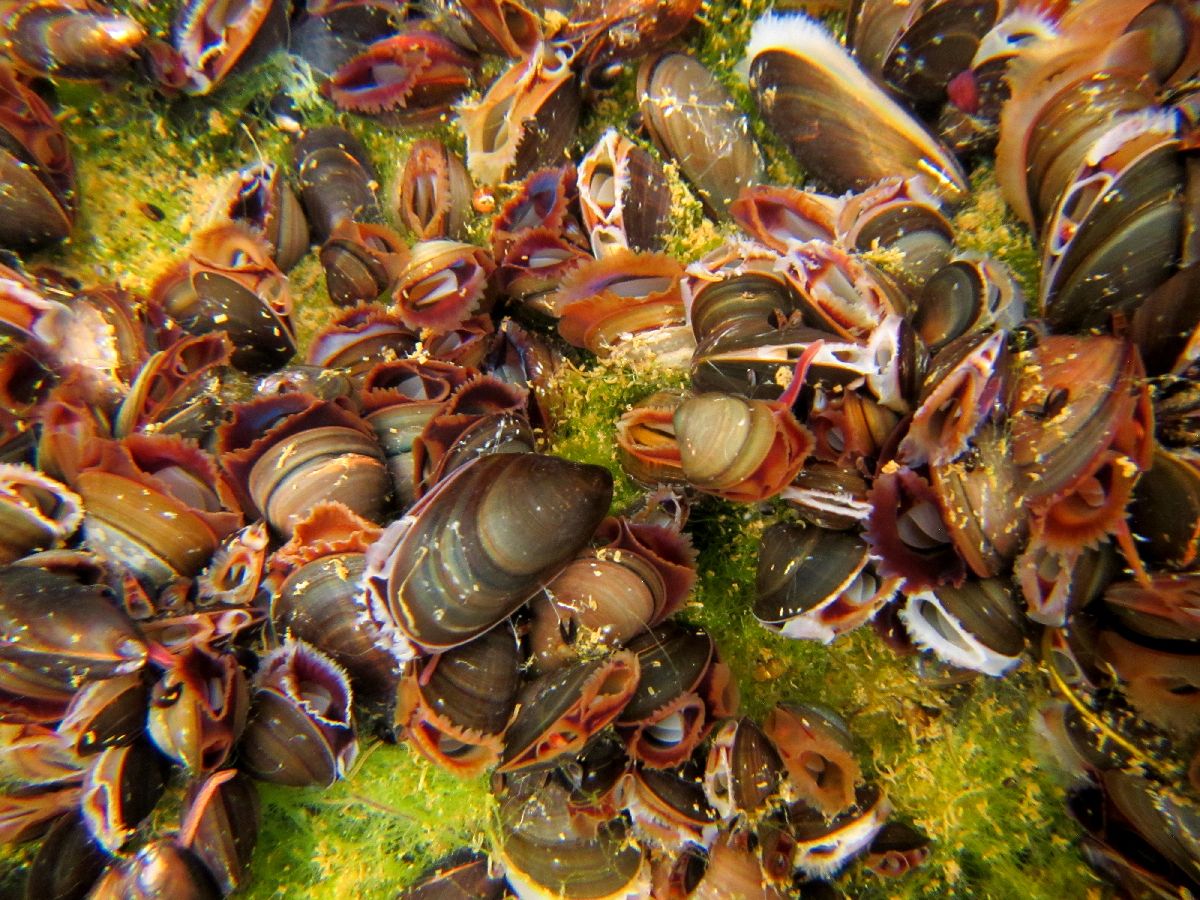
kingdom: Animalia
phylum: Mollusca
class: Bivalvia
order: Mytilida
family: Mytilidae
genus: Mytilus
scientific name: Mytilus edulis
